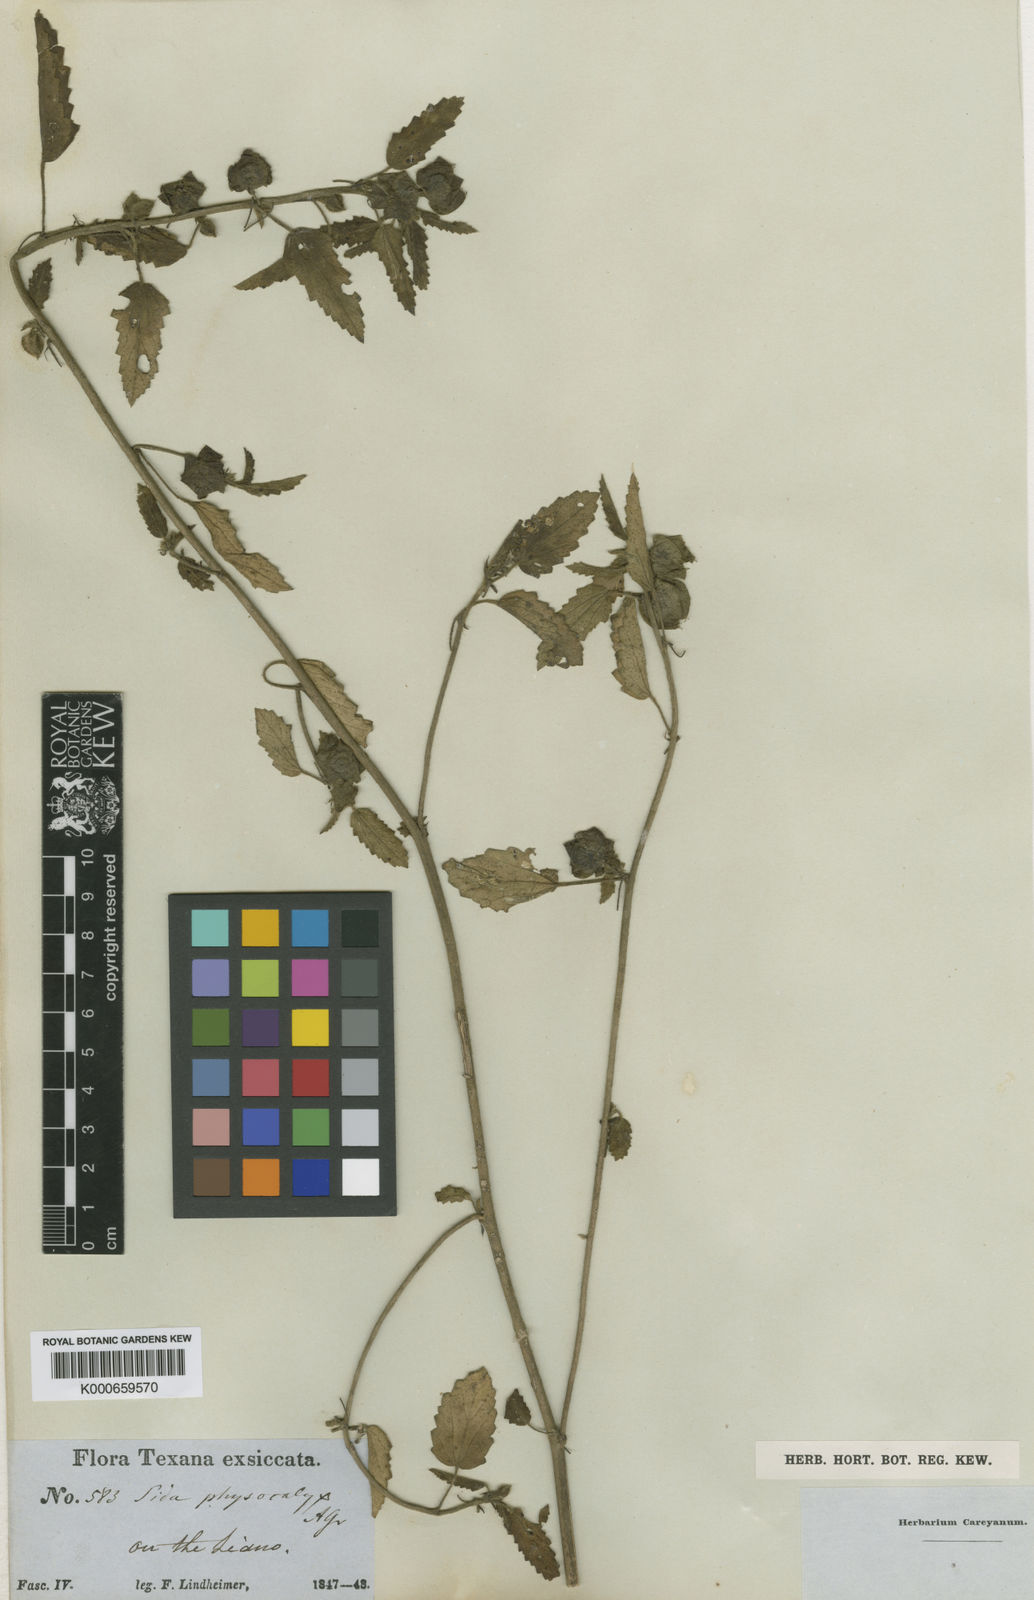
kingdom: Plantae
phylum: Tracheophyta
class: Magnoliopsida
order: Malvales
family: Malvaceae
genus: Rhynchosida
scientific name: Rhynchosida physocalyx
